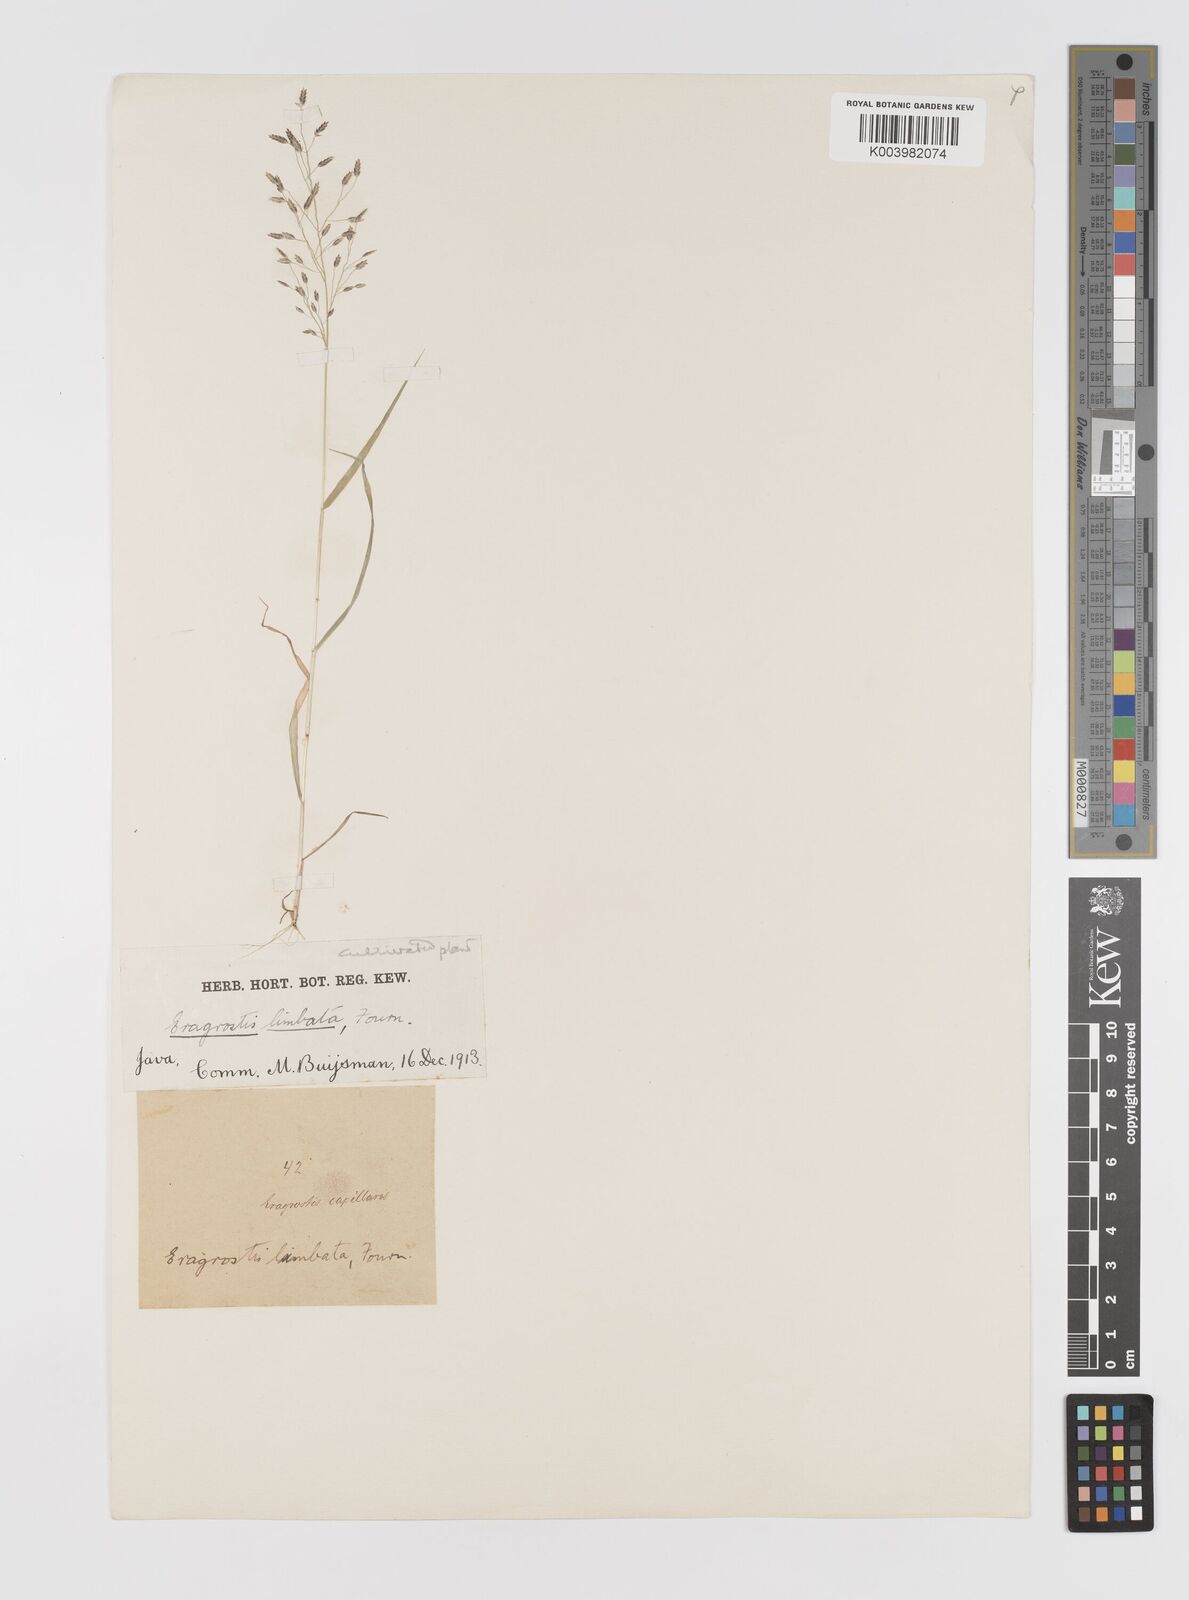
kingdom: Plantae
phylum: Tracheophyta
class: Liliopsida
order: Poales
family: Poaceae
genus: Eragrostis
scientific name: Eragrostis mexicana
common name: Mexican love grass
